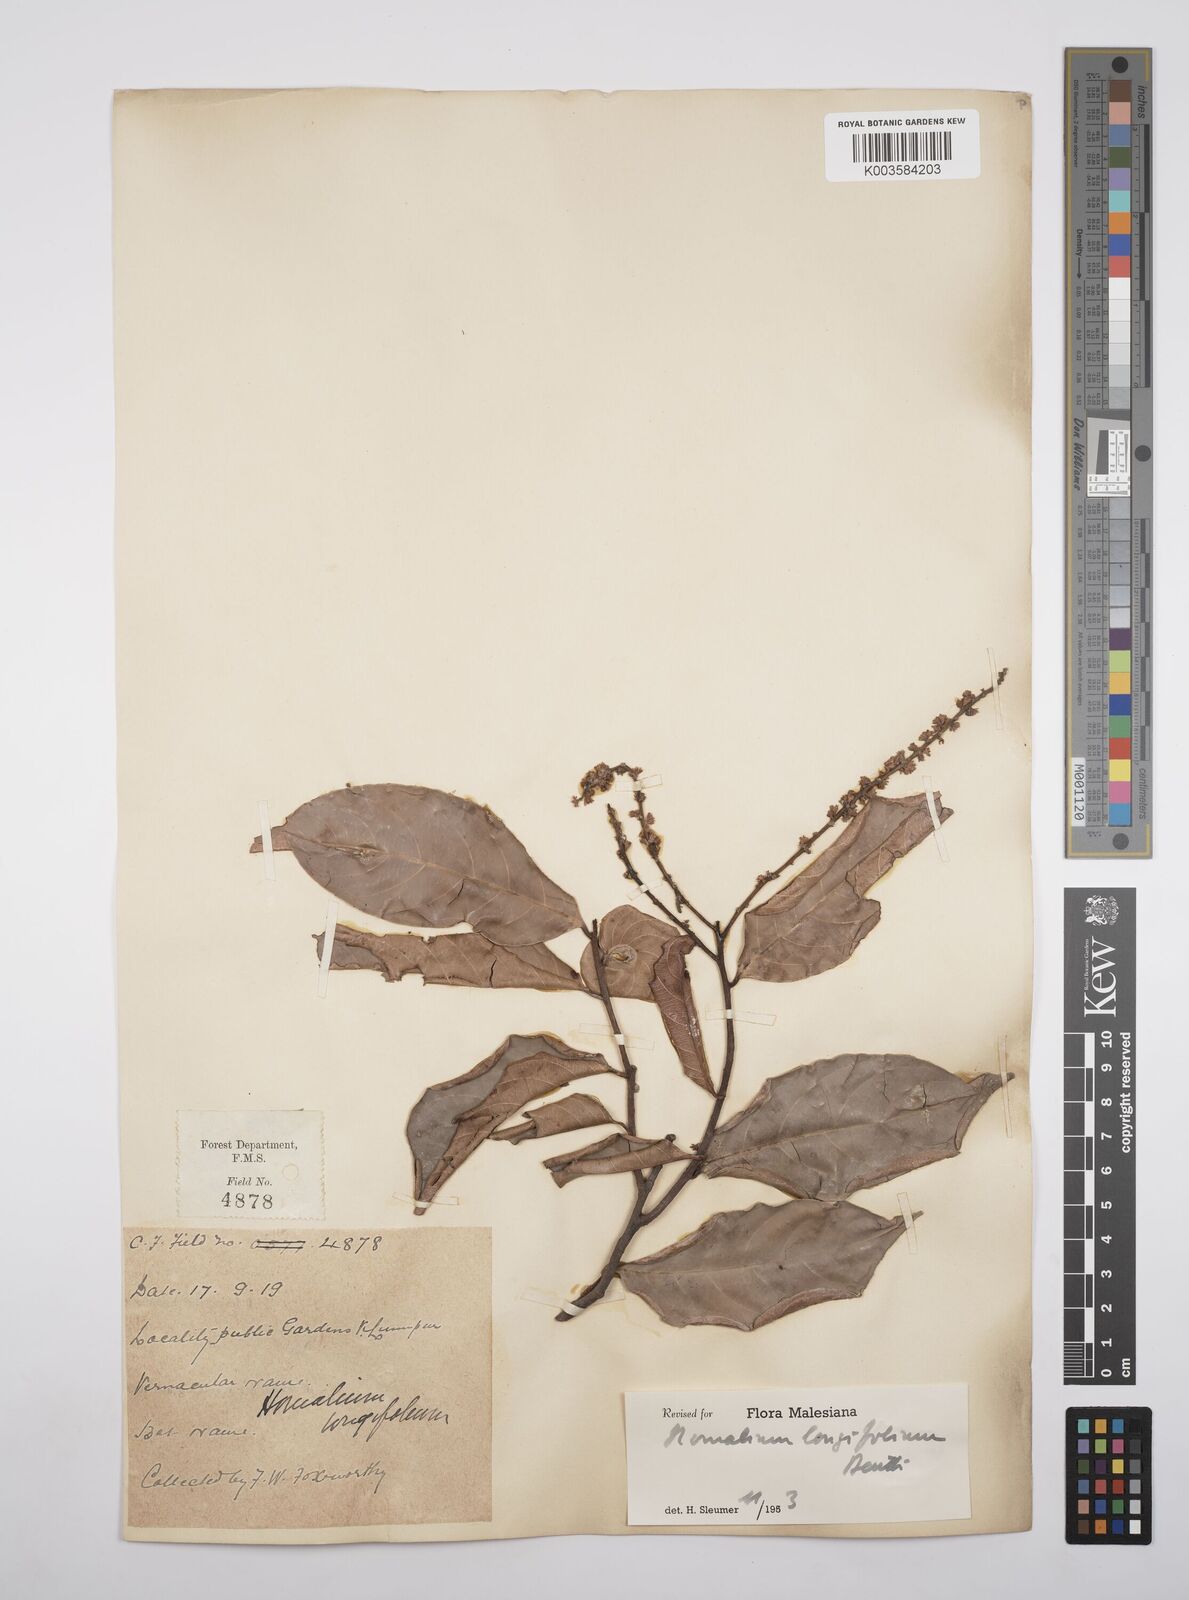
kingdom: Plantae
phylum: Tracheophyta
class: Magnoliopsida
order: Malpighiales
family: Salicaceae
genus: Homalium
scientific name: Homalium longifolium
